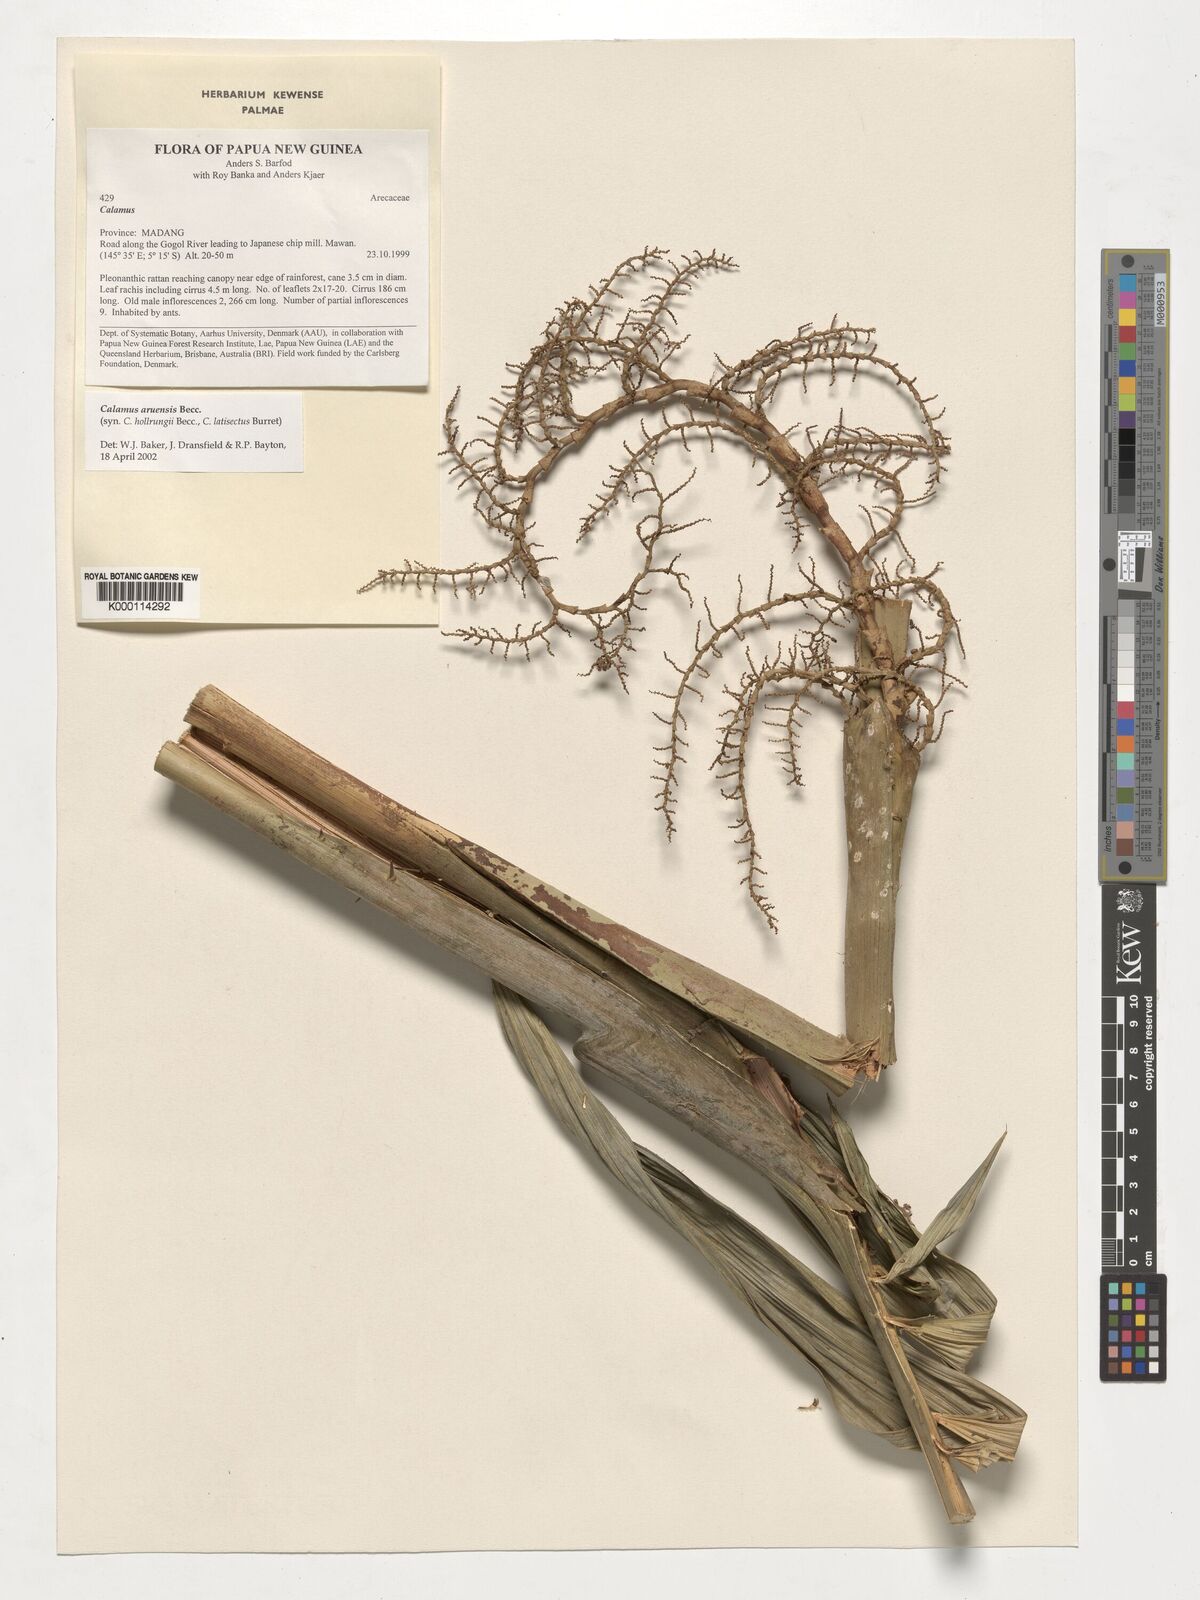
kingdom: Plantae
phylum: Tracheophyta
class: Liliopsida
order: Arecales
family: Arecaceae
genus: Calamus
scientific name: Calamus aruensis
